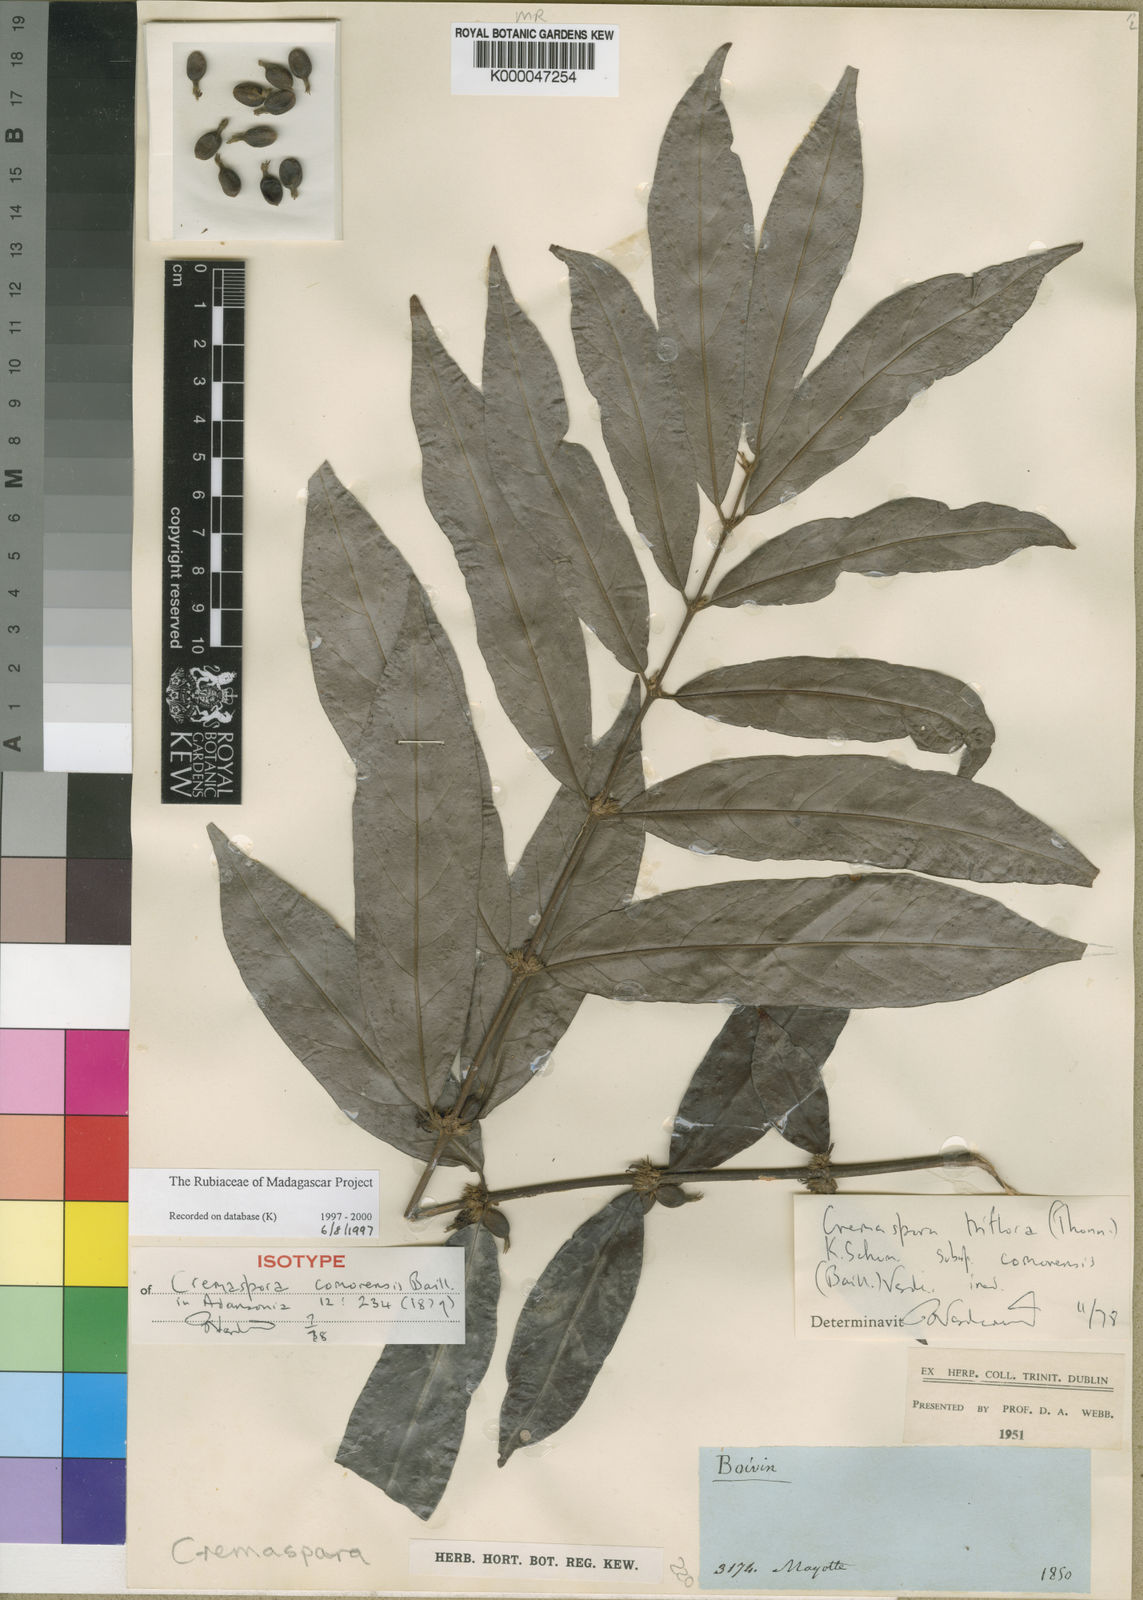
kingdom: Plantae
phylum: Tracheophyta
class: Magnoliopsida
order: Gentianales
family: Rubiaceae
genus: Cremaspora
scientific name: Cremaspora triflora
